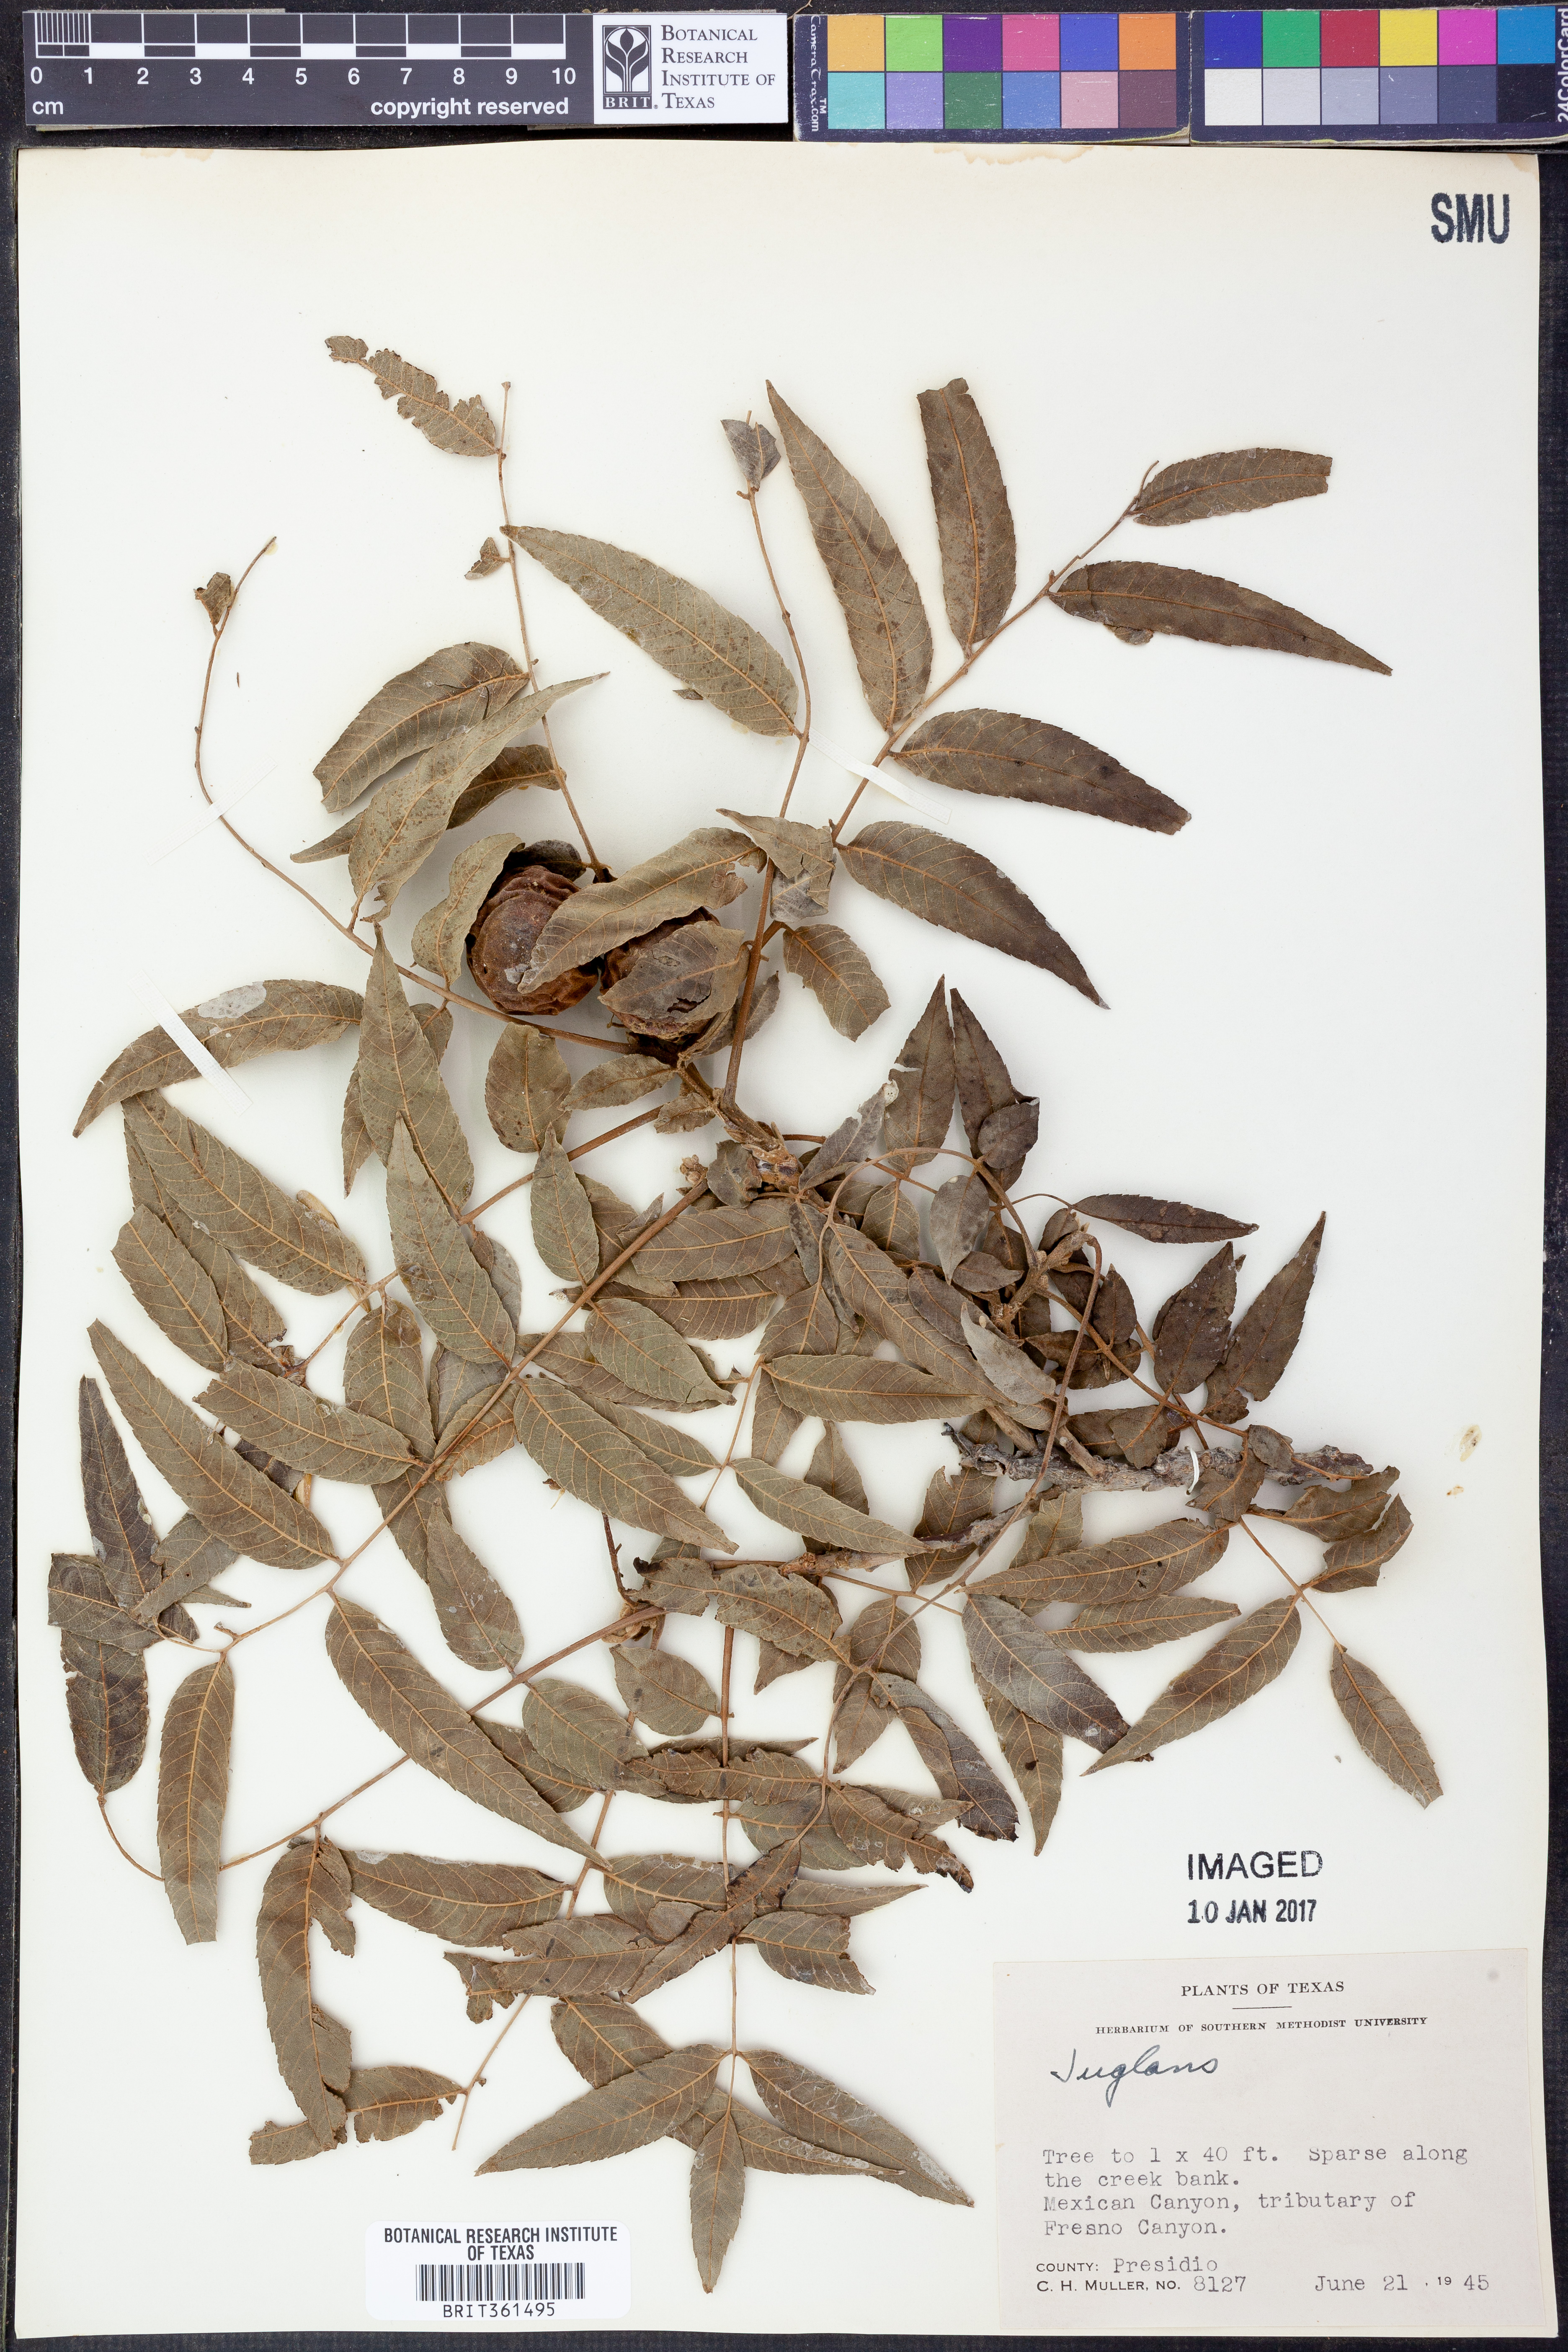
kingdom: Plantae
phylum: Tracheophyta
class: Magnoliopsida
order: Fagales
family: Juglandaceae
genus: Juglans
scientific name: Juglans
